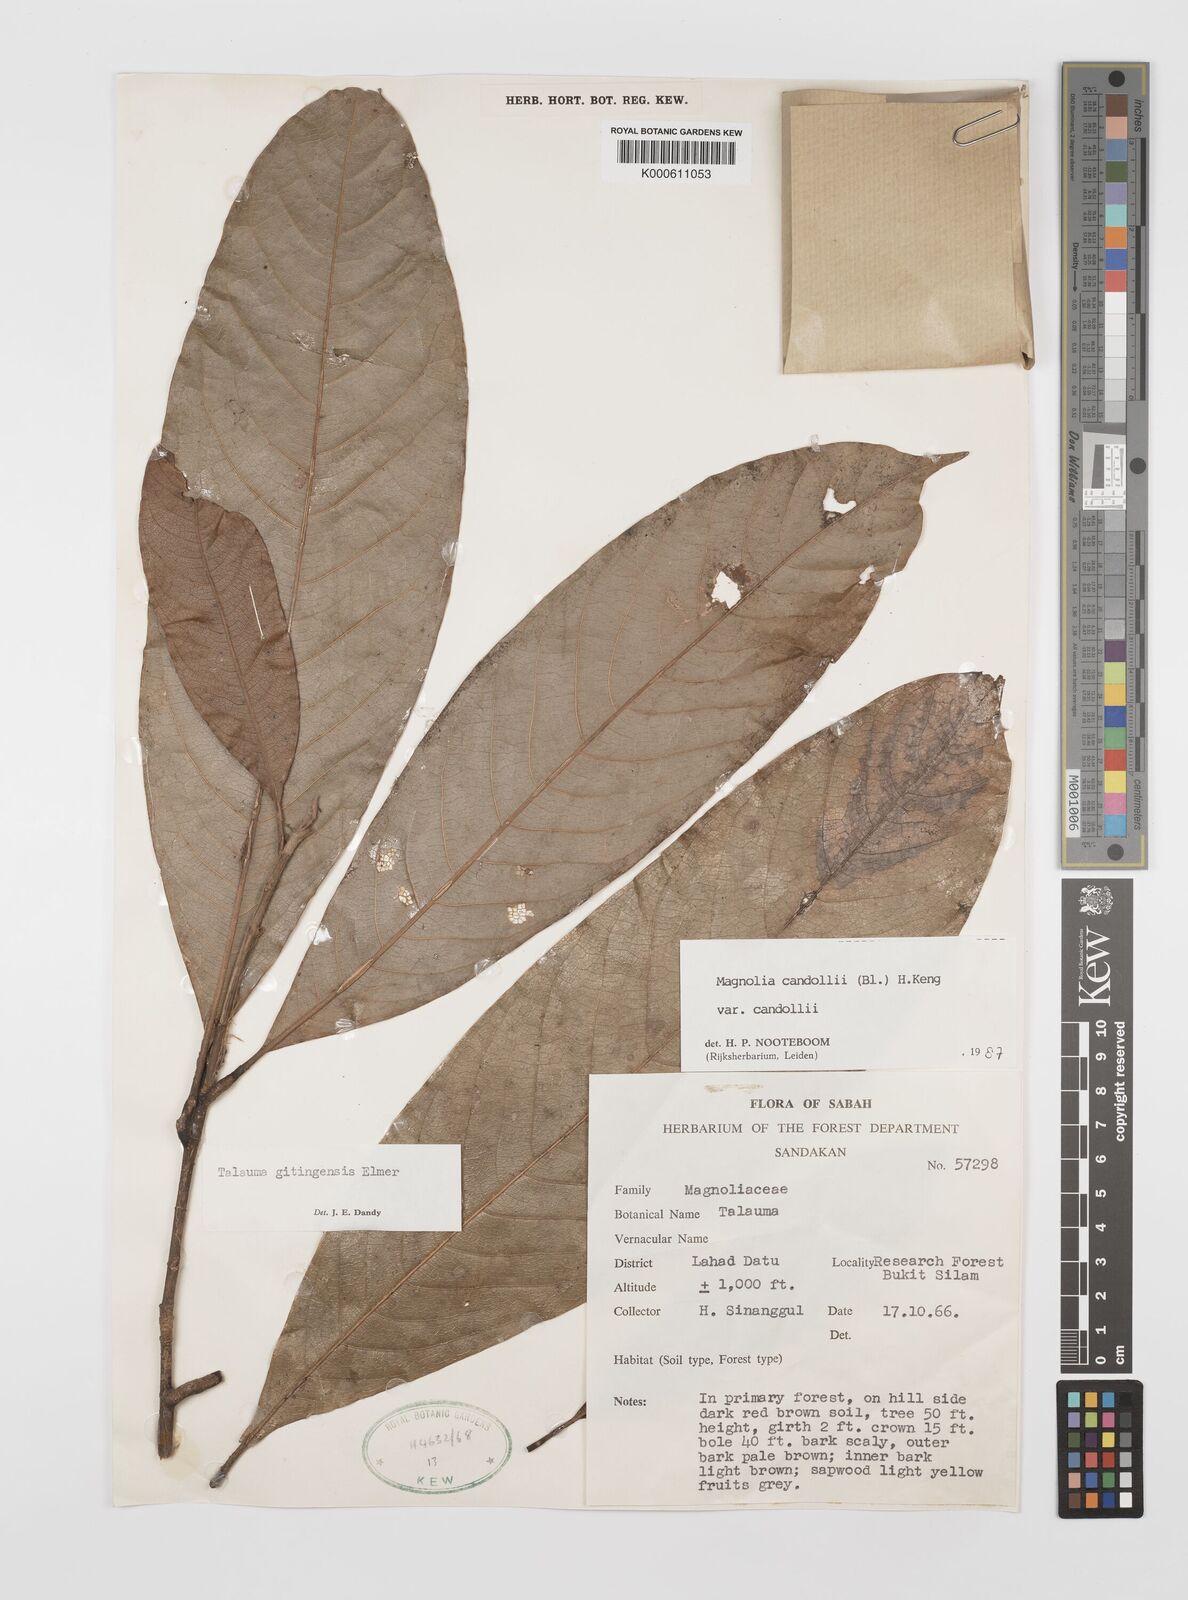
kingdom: Plantae
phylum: Tracheophyta
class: Magnoliopsida
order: Magnoliales
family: Magnoliaceae
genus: Magnolia
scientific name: Magnolia liliifera
